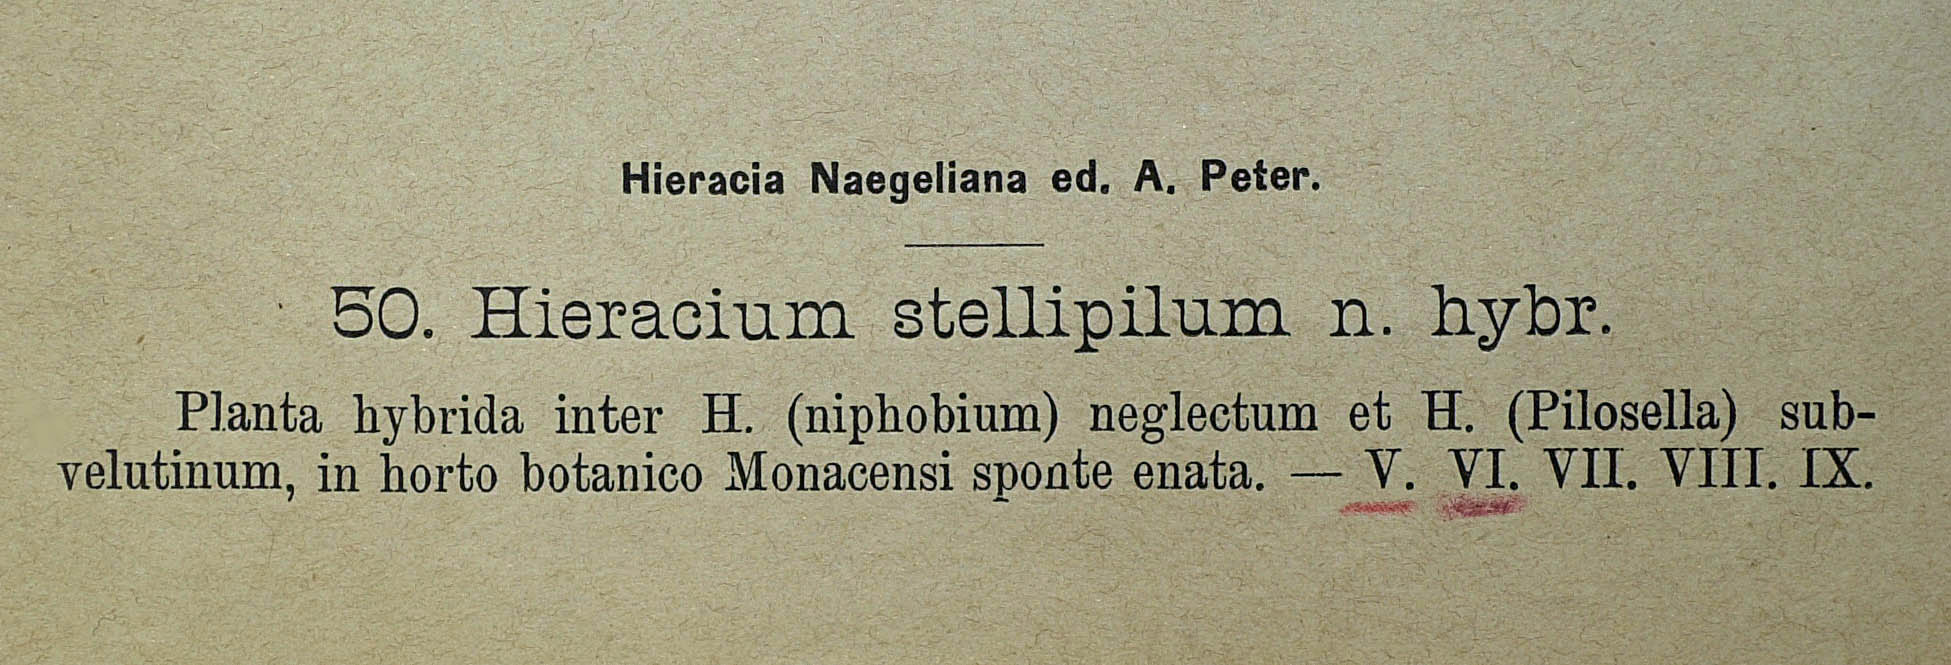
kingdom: Plantae
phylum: Tracheophyta
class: Magnoliopsida
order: Asterales
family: Asteraceae
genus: Pilosella
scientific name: Pilosella triplex
